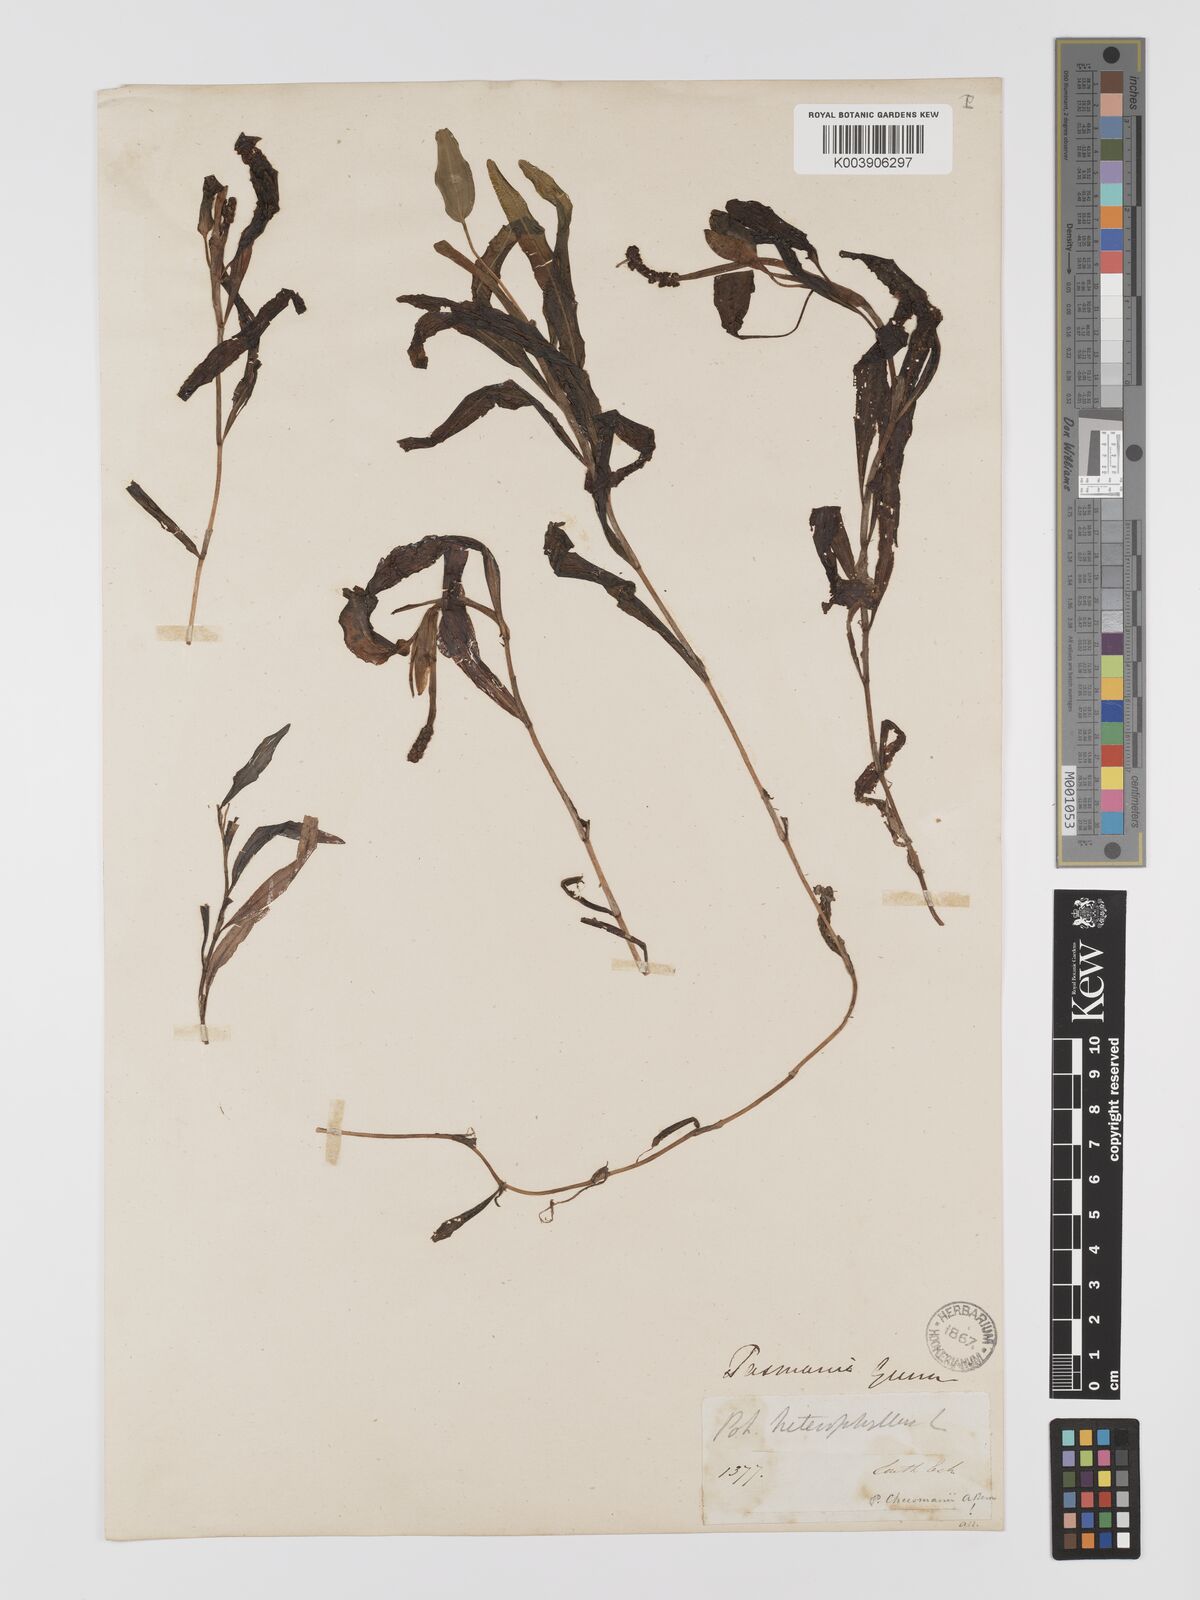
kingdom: Plantae
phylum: Tracheophyta
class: Liliopsida
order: Alismatales
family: Potamogetonaceae
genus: Potamogeton
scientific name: Potamogeton drummondii
